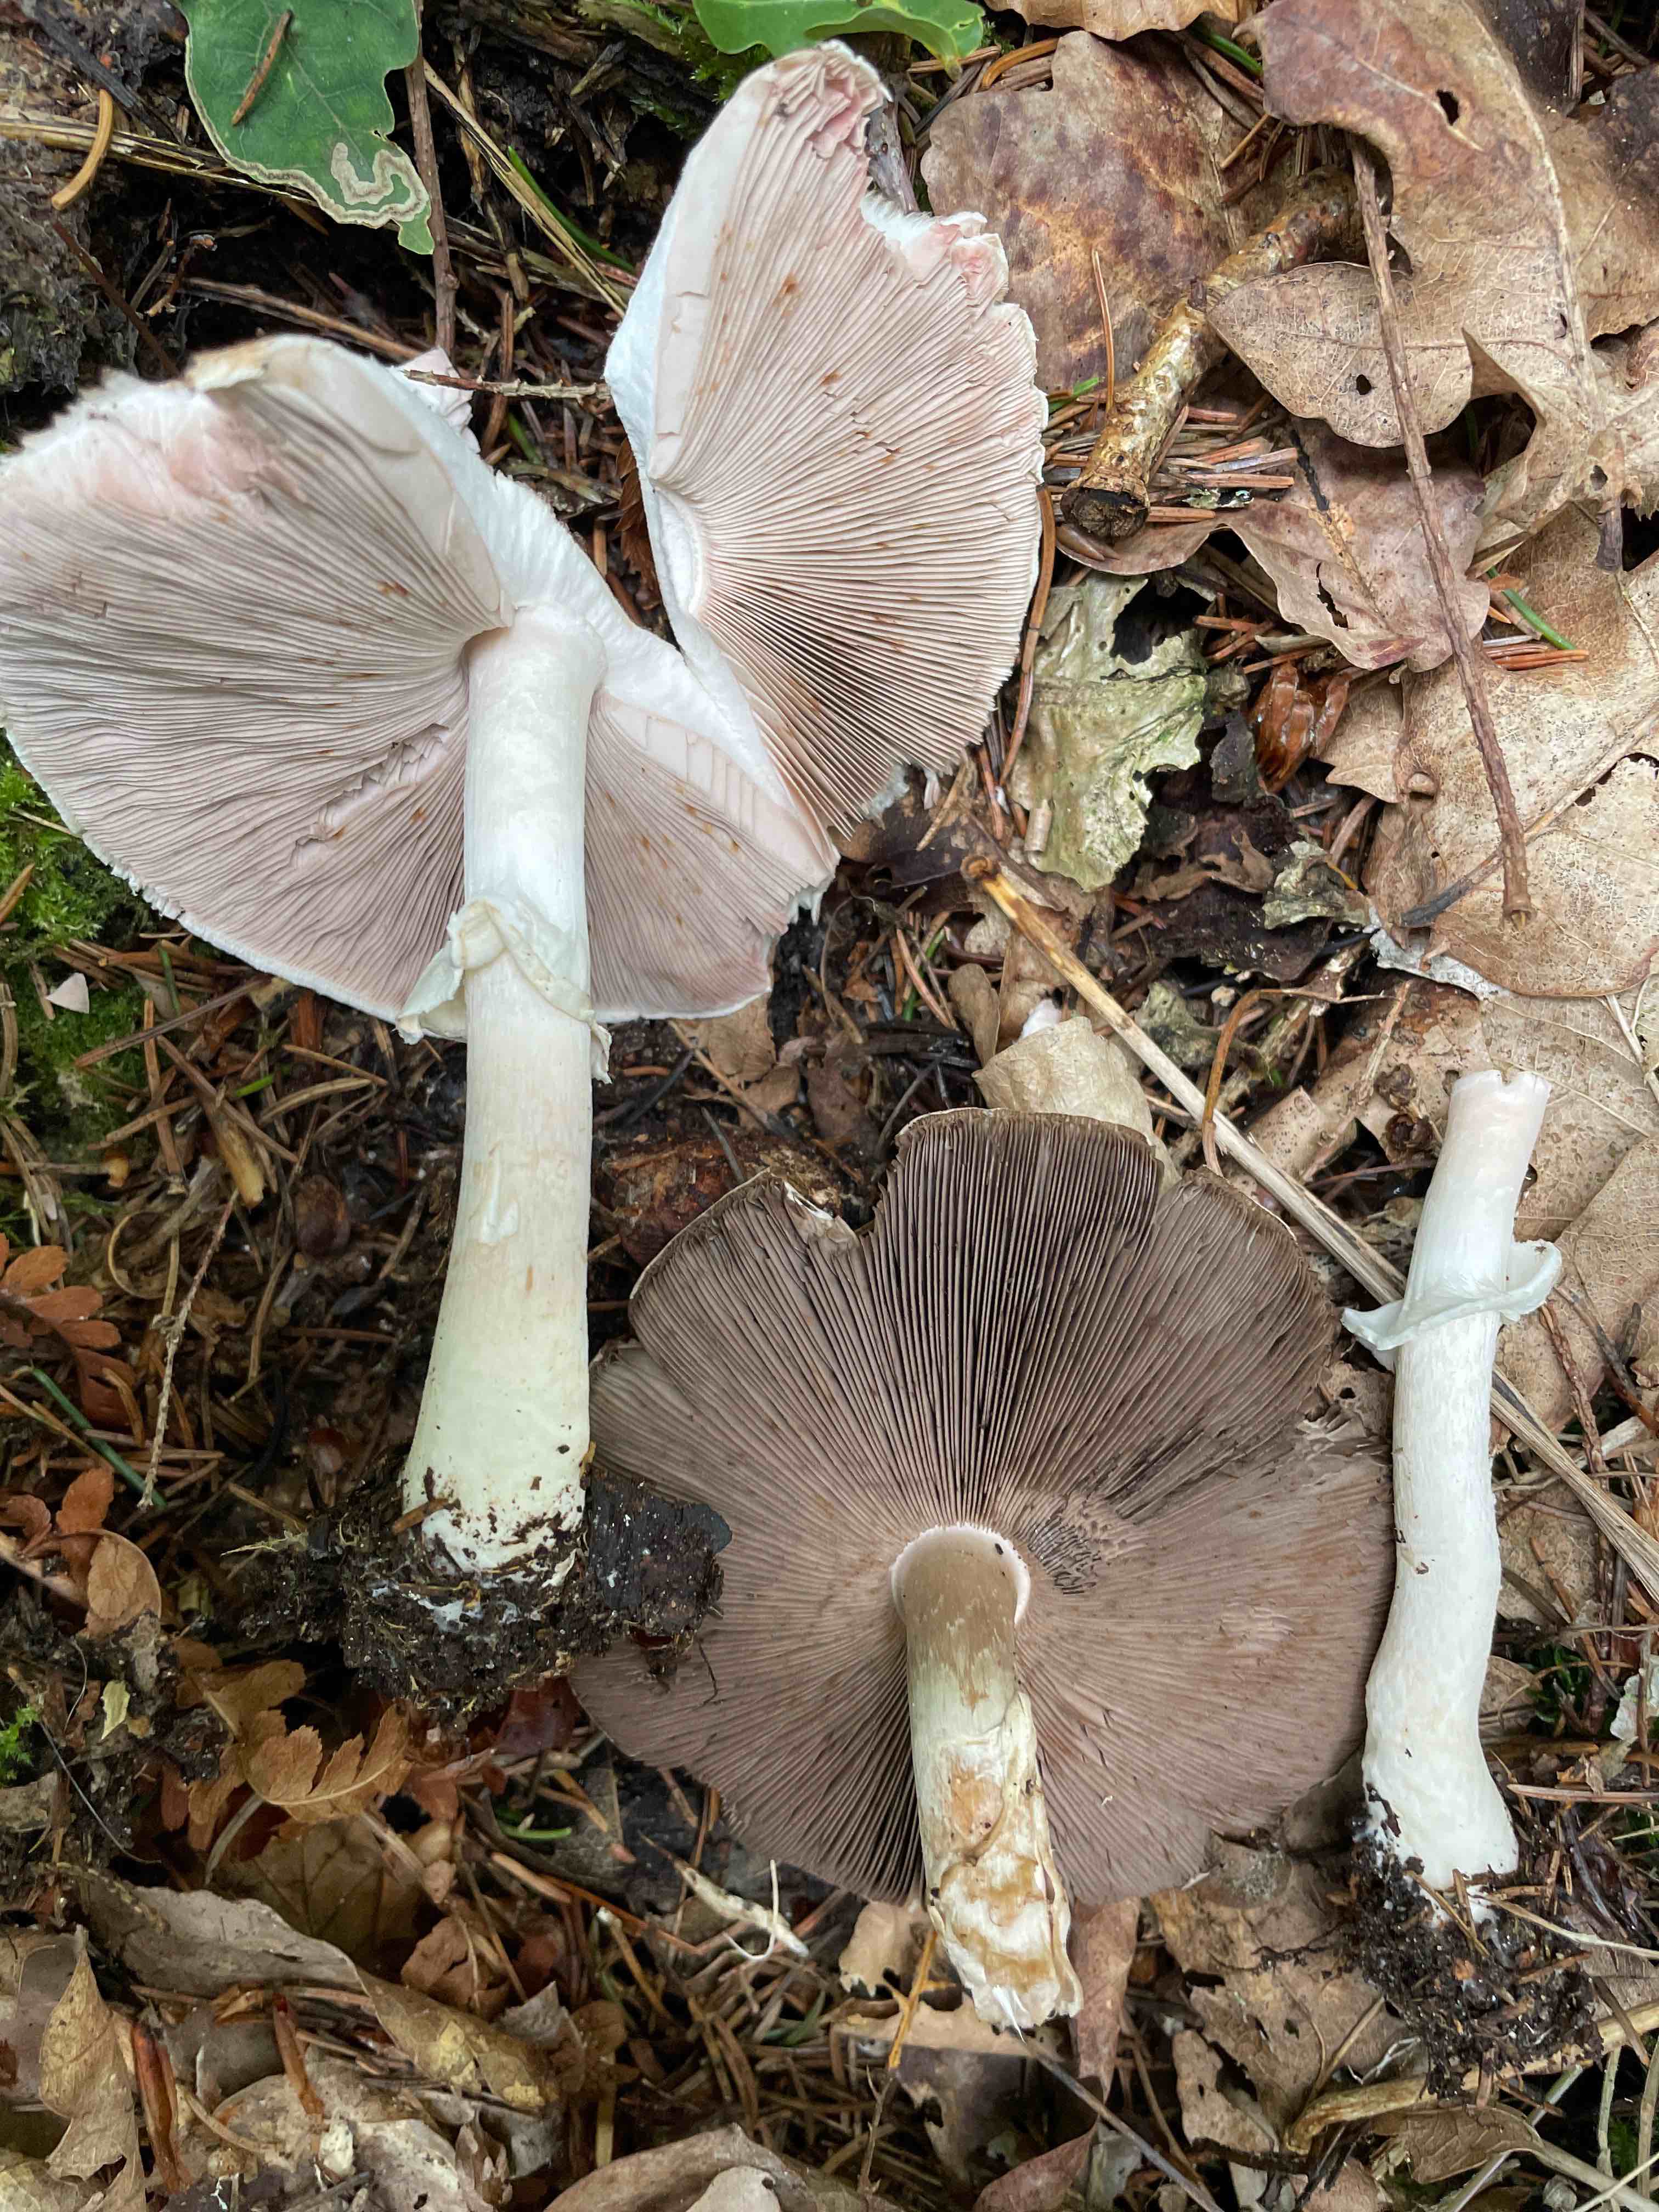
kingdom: Fungi
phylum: Basidiomycota
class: Agaricomycetes
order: Agaricales
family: Agaricaceae
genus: Agaricus
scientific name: Agaricus impudicus
